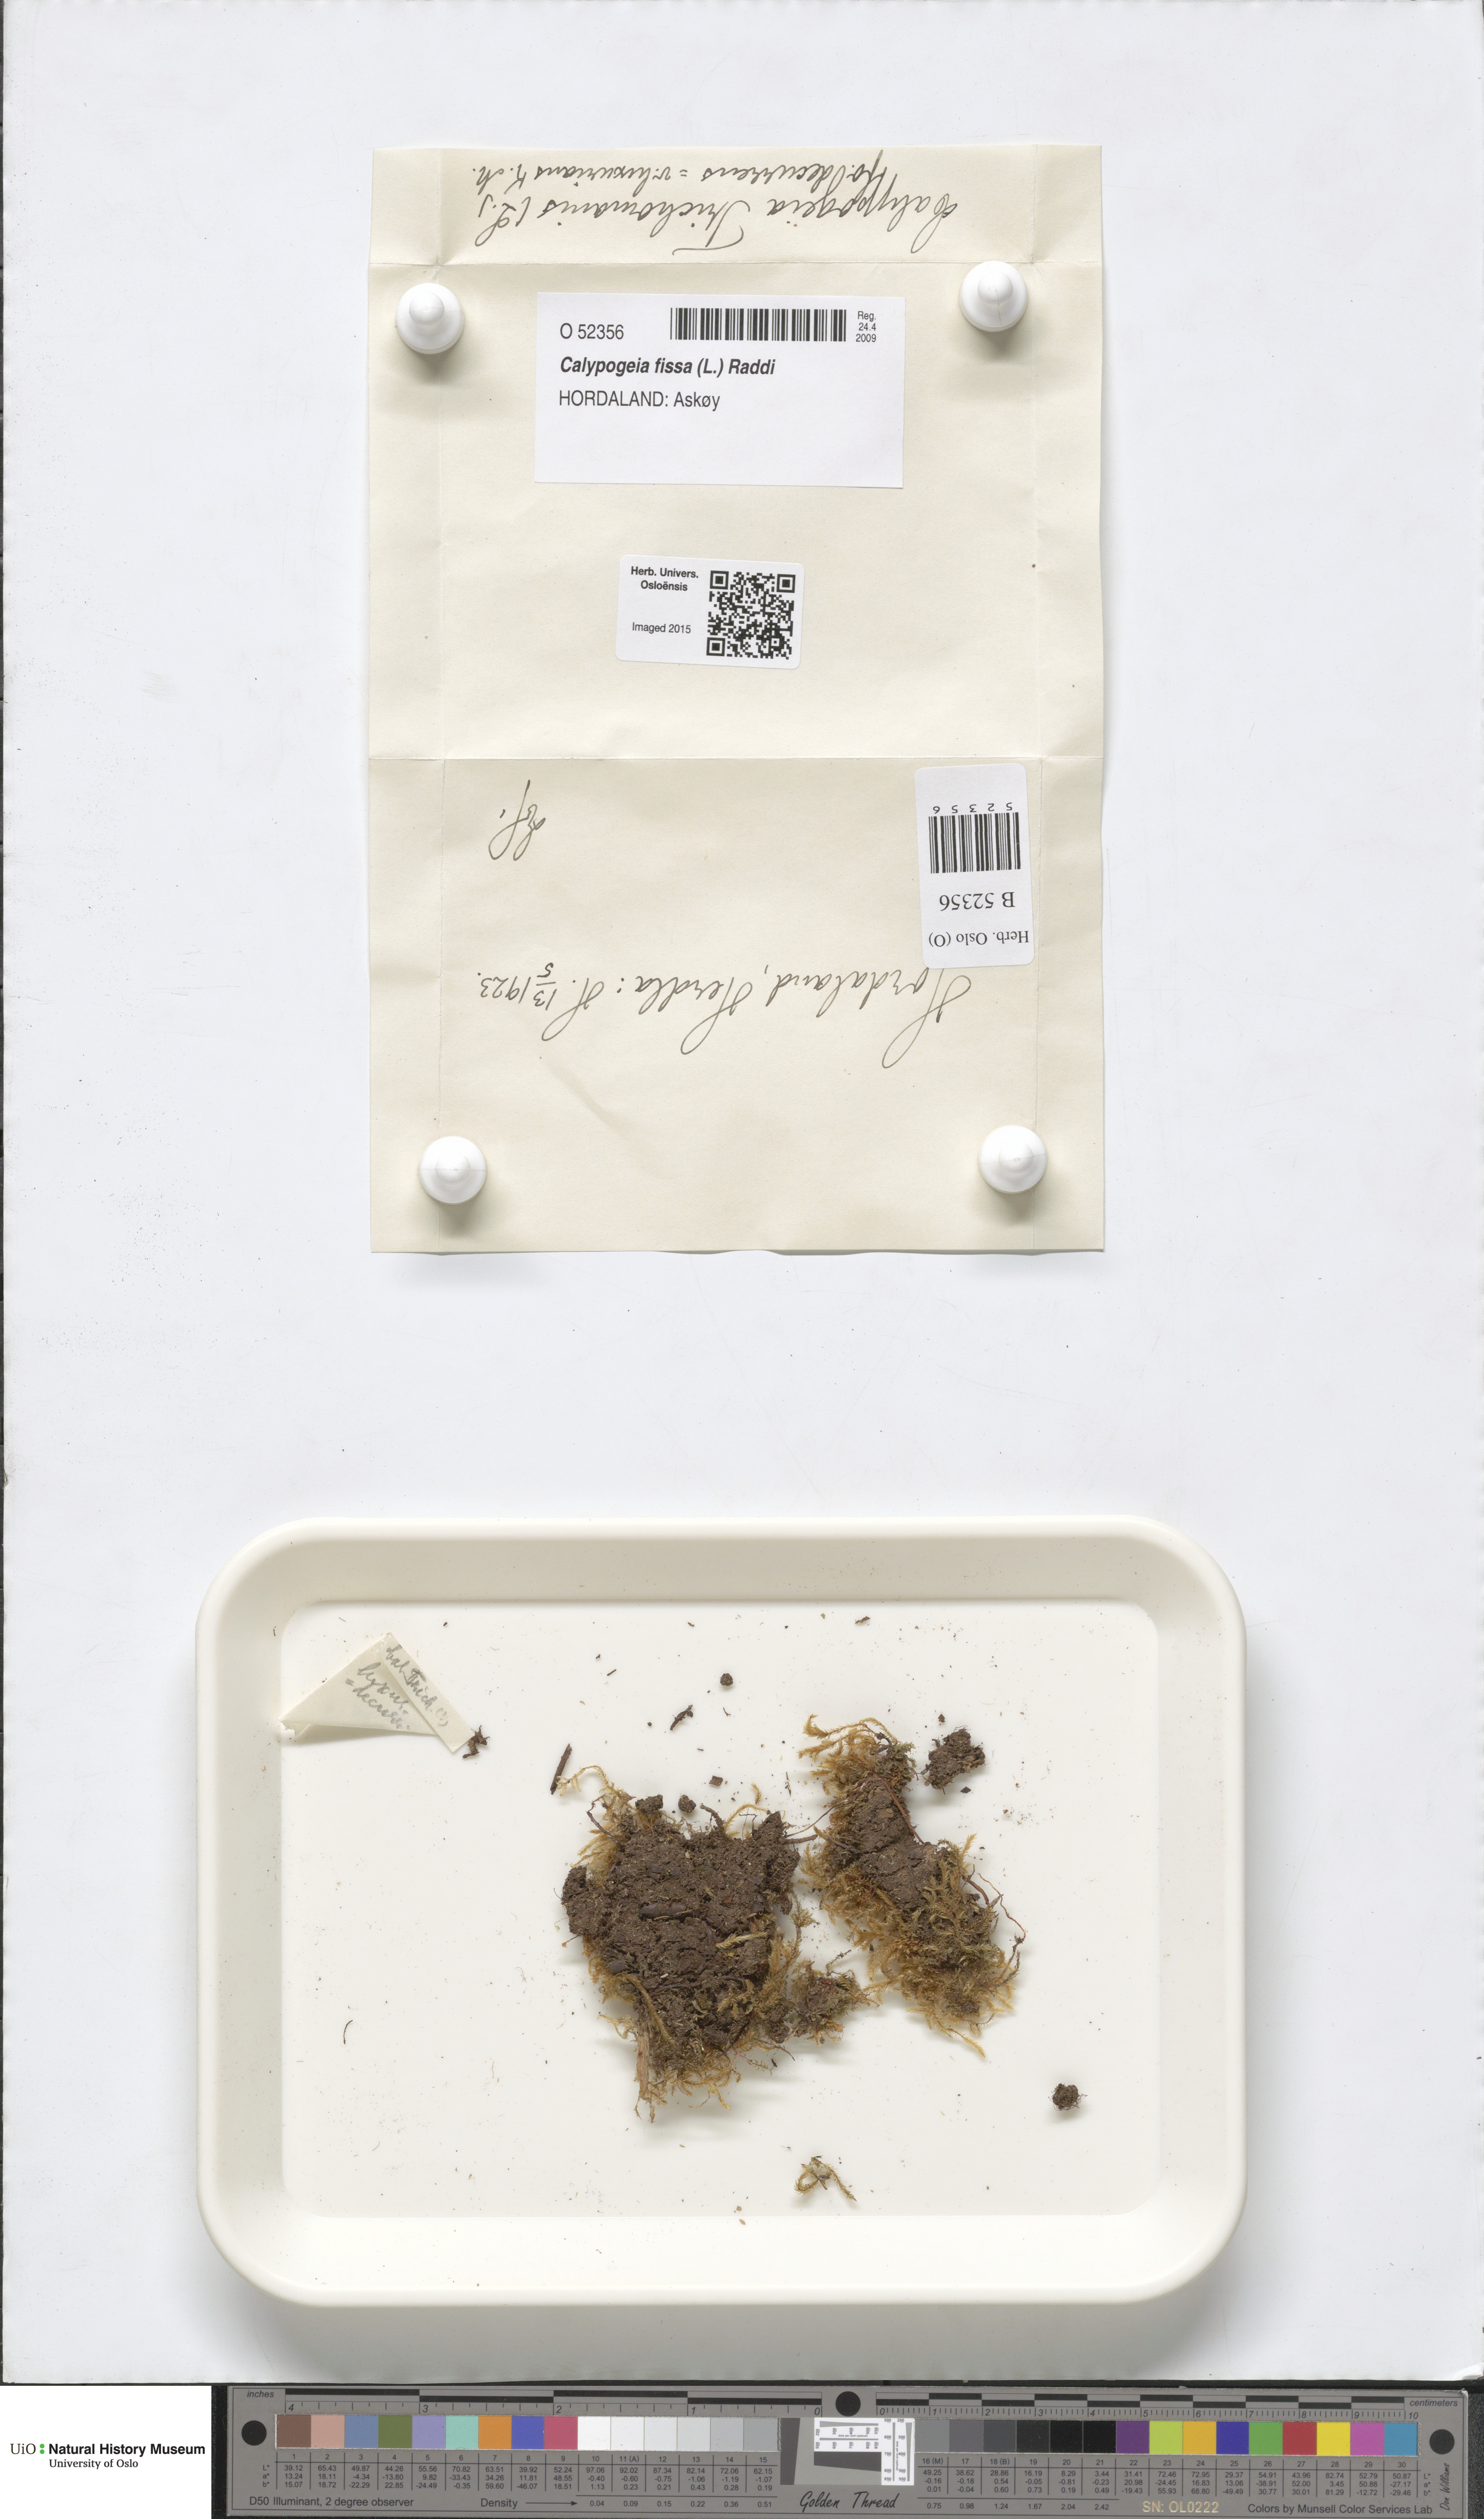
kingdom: Plantae
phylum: Marchantiophyta
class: Jungermanniopsida
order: Jungermanniales
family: Calypogeiaceae
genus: Calypogeia
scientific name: Calypogeia fissa
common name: Common pouchwort
